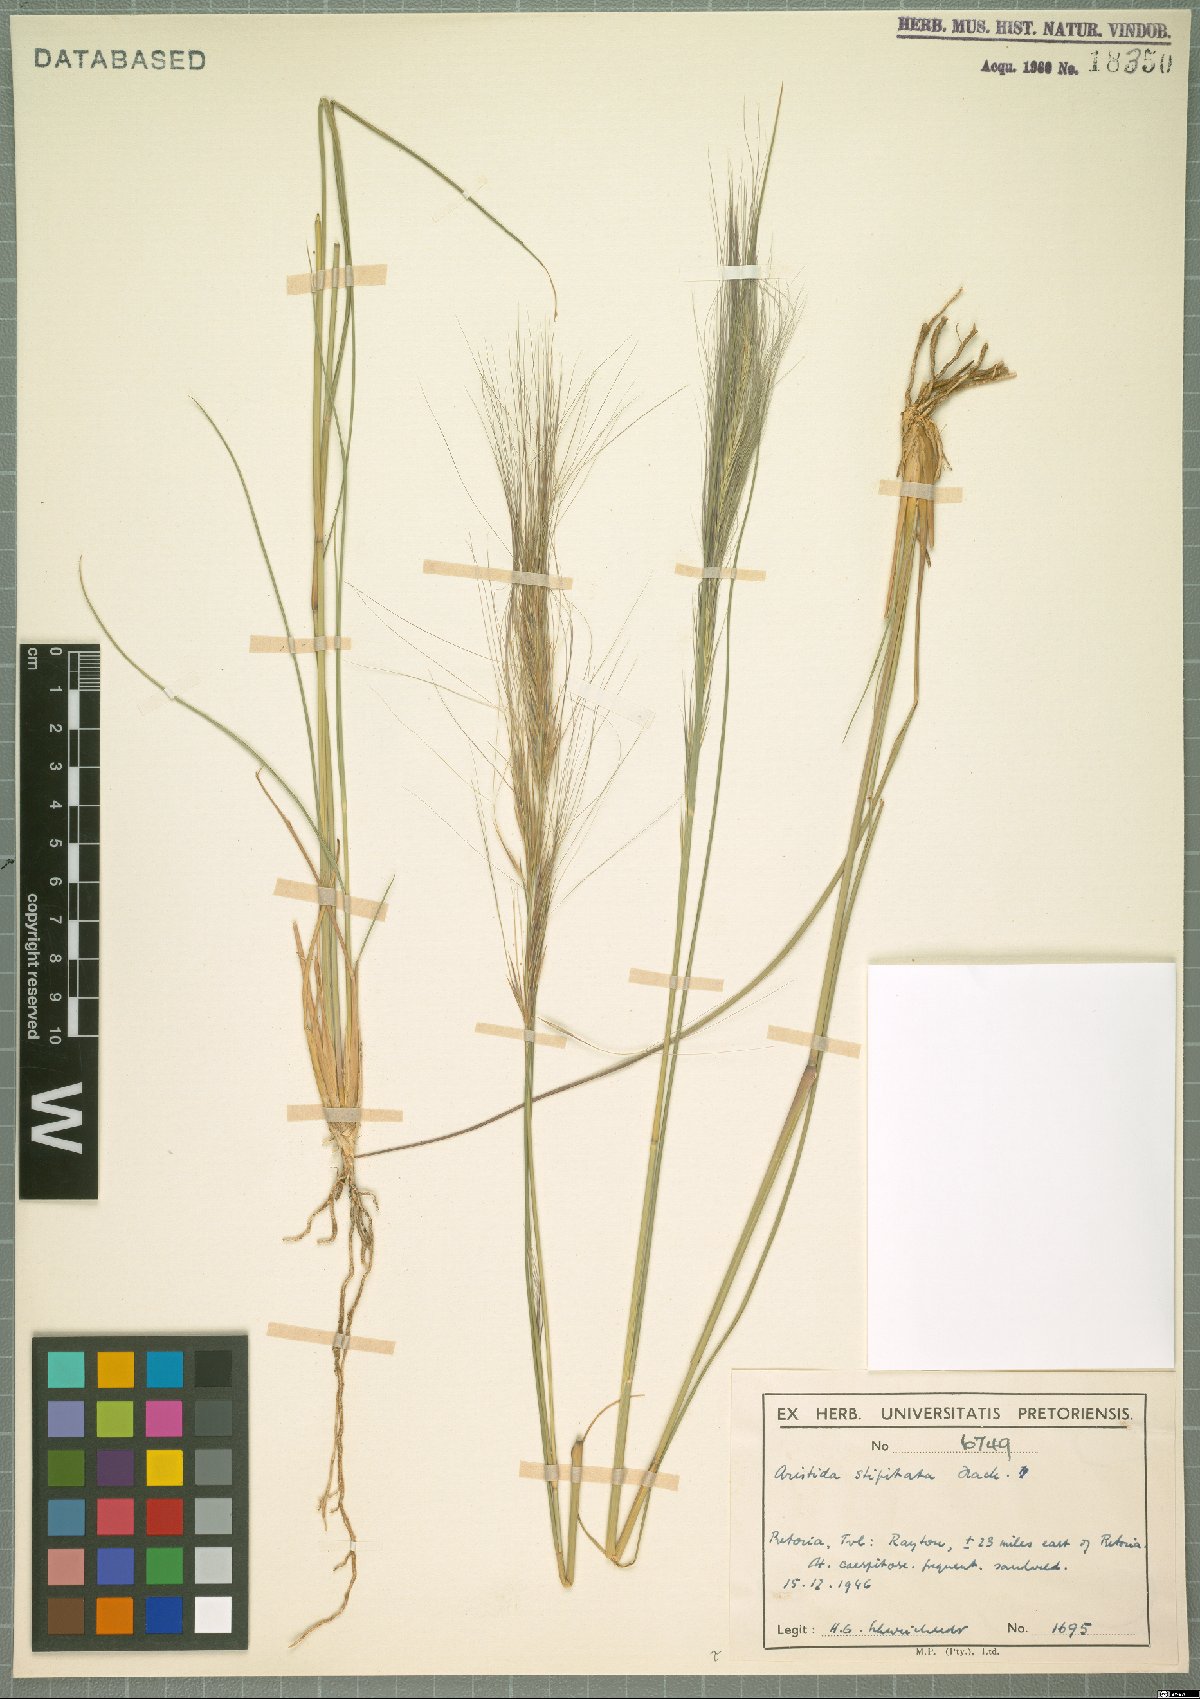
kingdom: Plantae
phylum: Tracheophyta
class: Liliopsida
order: Poales
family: Poaceae
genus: Aristida
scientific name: Aristida stipitata
